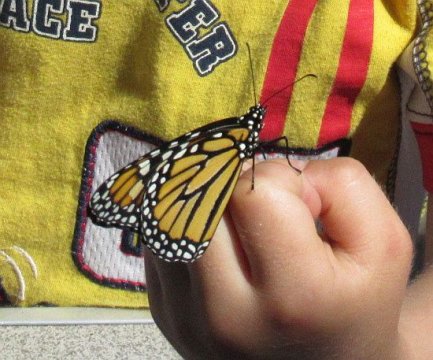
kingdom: Animalia
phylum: Arthropoda
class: Insecta
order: Lepidoptera
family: Nymphalidae
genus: Danaus
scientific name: Danaus plexippus
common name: Monarch
